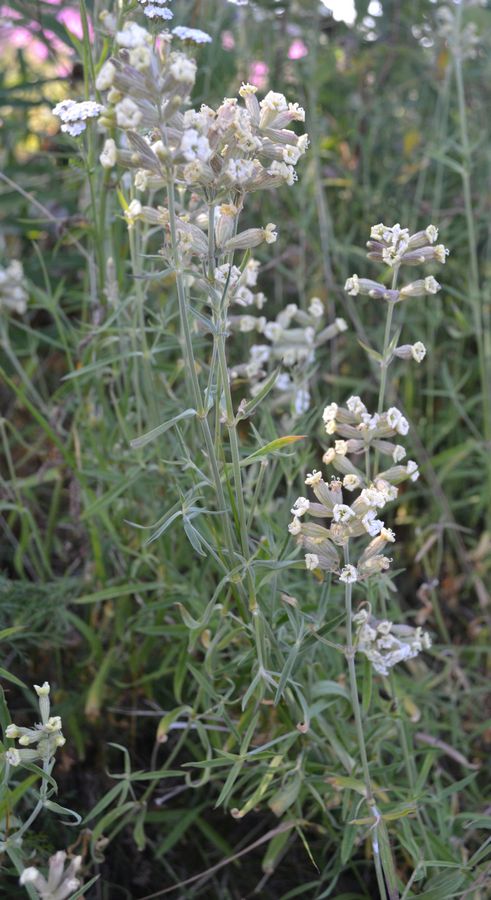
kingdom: Plantae
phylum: Tracheophyta
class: Magnoliopsida
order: Caryophyllales
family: Caryophyllaceae
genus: Silene
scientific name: Silene repens
